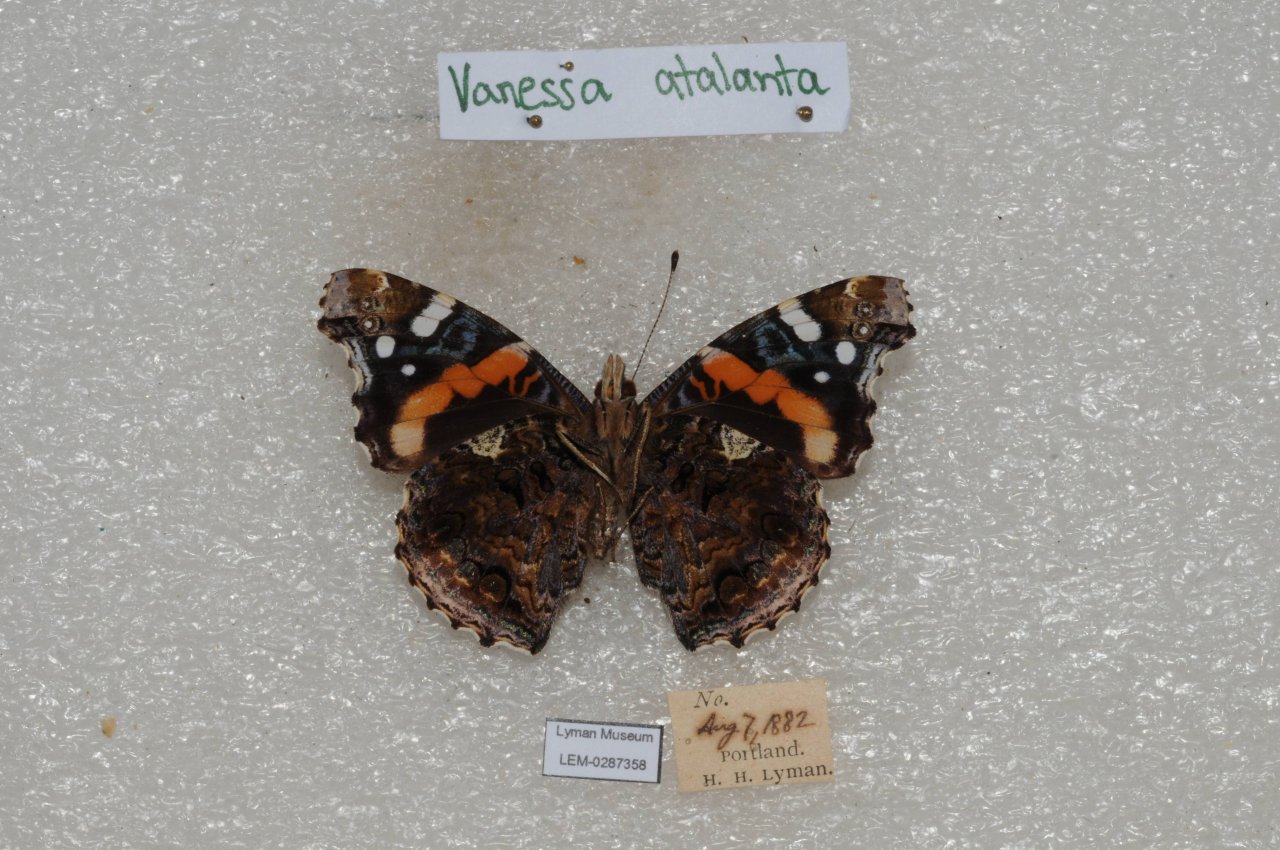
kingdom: Animalia
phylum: Arthropoda
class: Insecta
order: Lepidoptera
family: Nymphalidae
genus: Vanessa
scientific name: Vanessa atalanta
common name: Red Admiral
